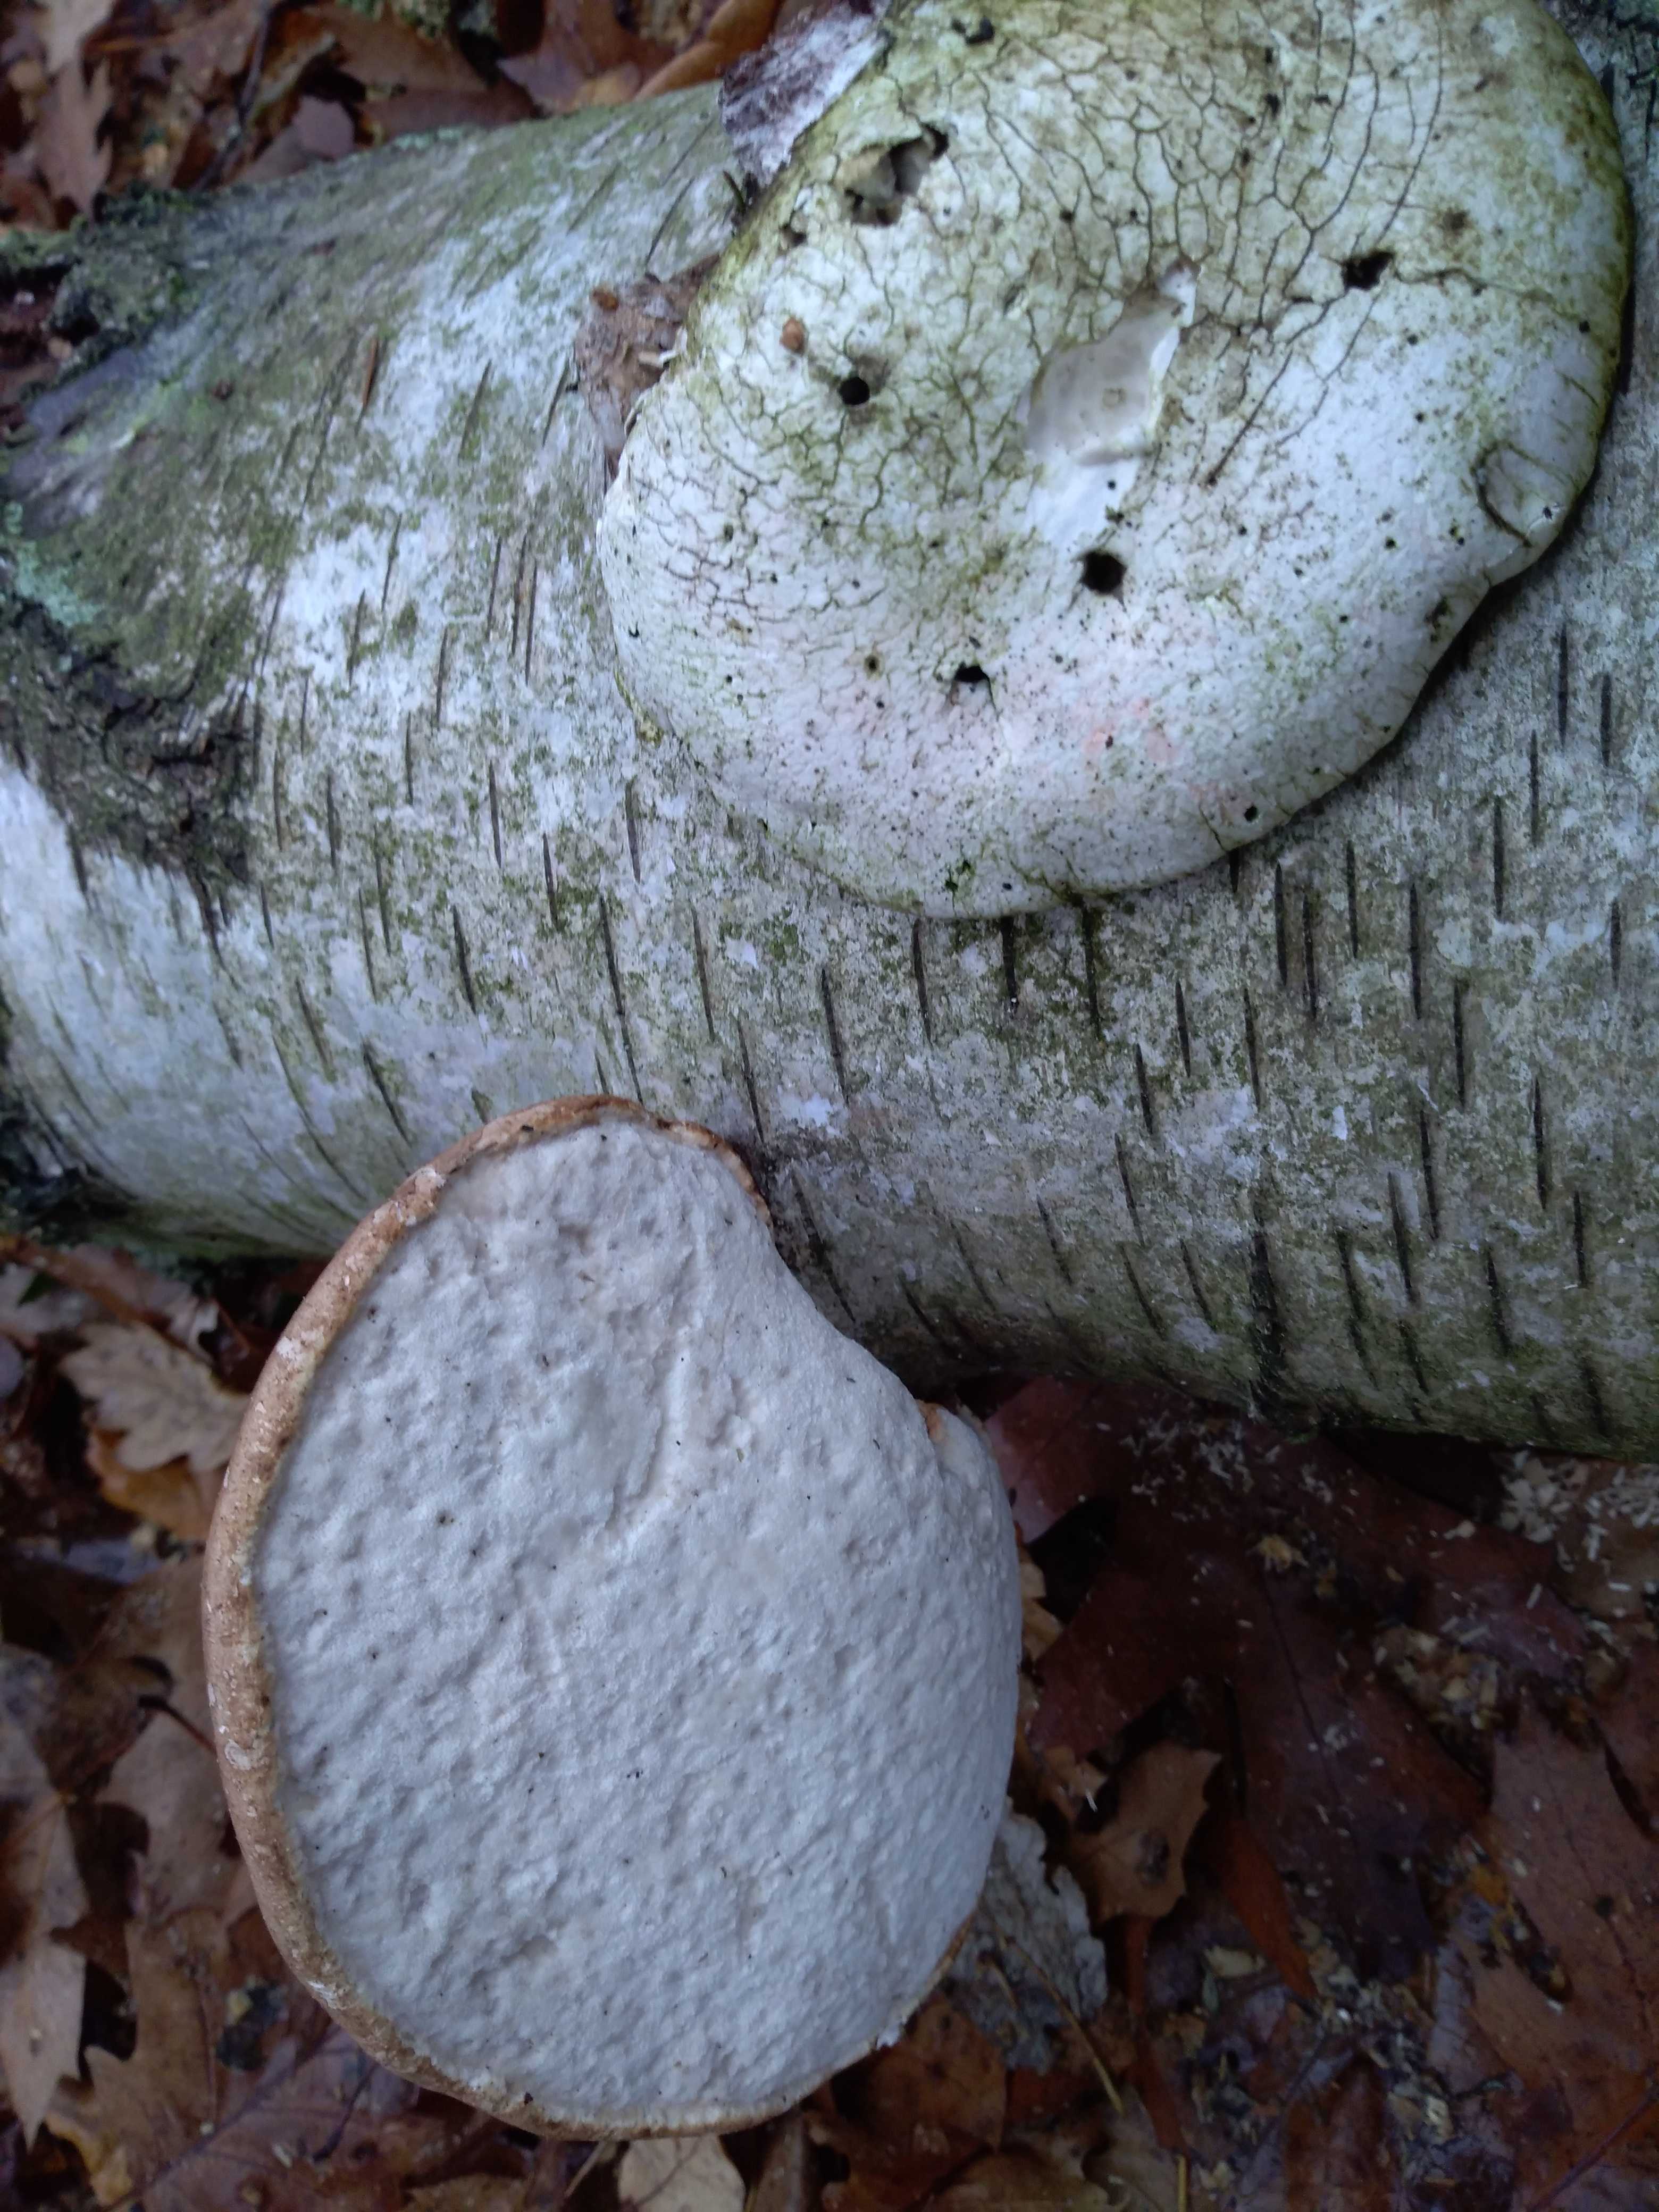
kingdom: Fungi
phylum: Basidiomycota
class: Agaricomycetes
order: Polyporales
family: Fomitopsidaceae
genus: Fomitopsis
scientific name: Fomitopsis betulina
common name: birkeporesvamp
